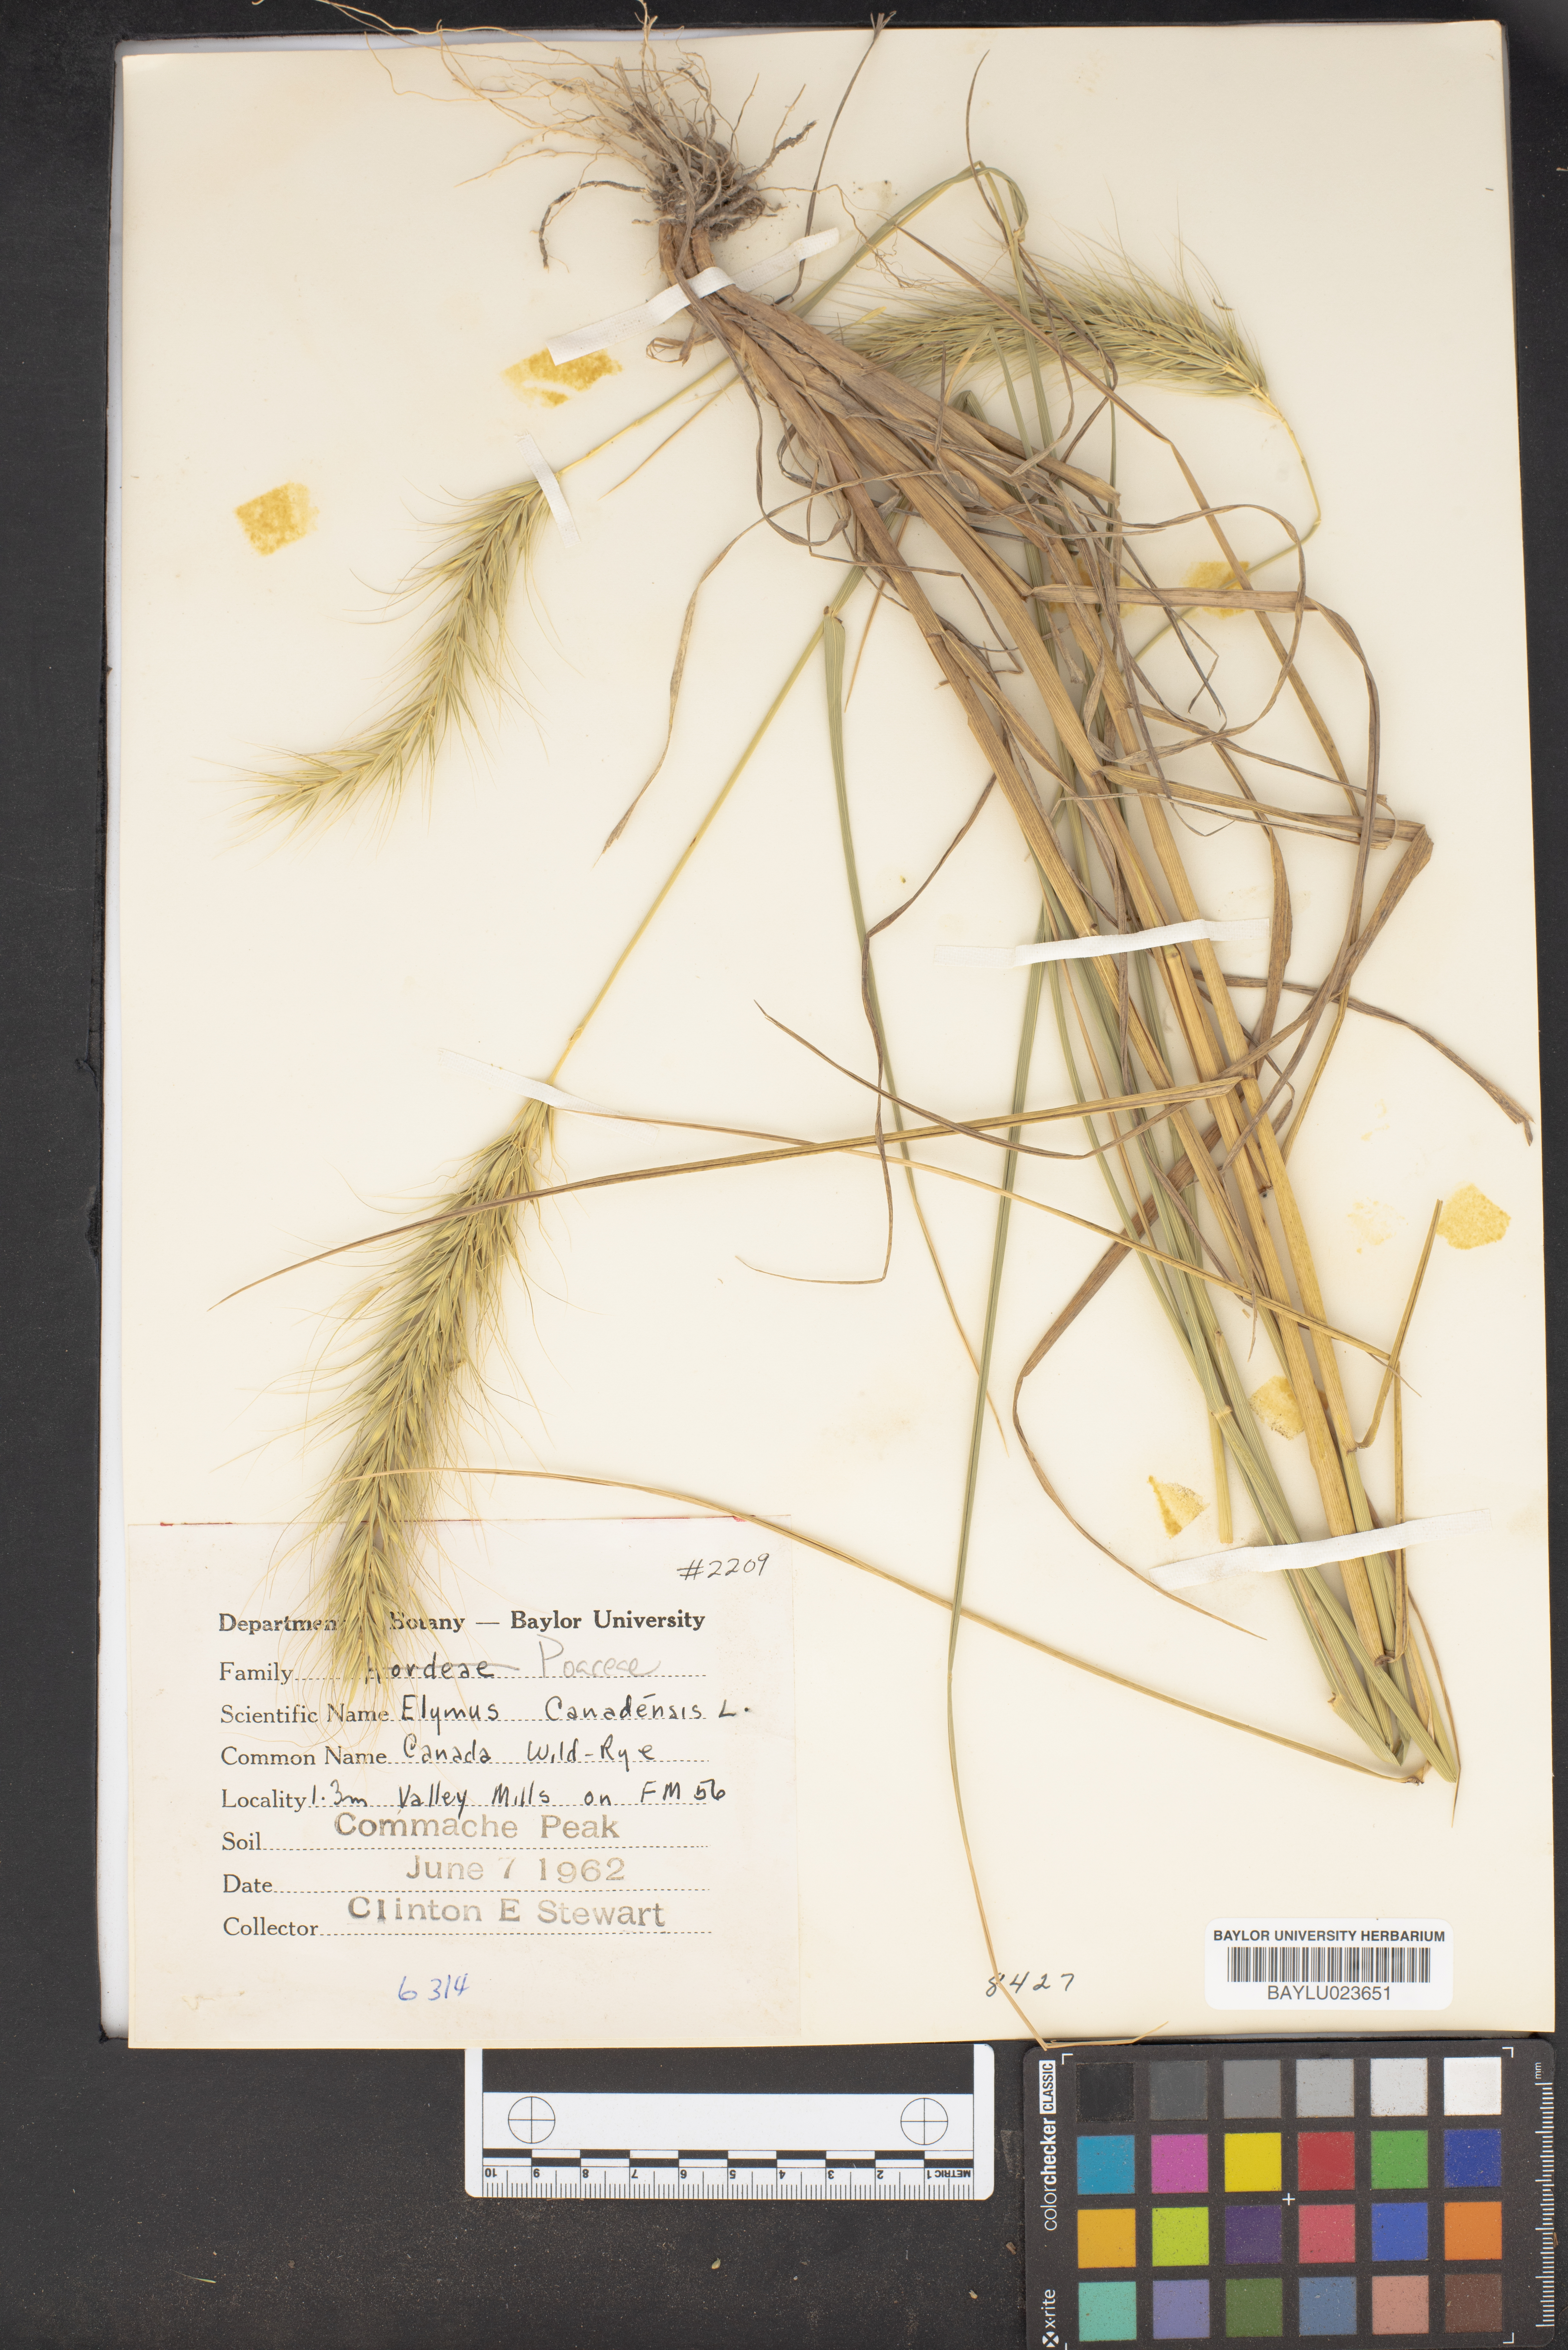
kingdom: Plantae
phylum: Tracheophyta
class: Liliopsida
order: Poales
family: Poaceae
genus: Elymus
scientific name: Elymus canadensis
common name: Canada wild rye
